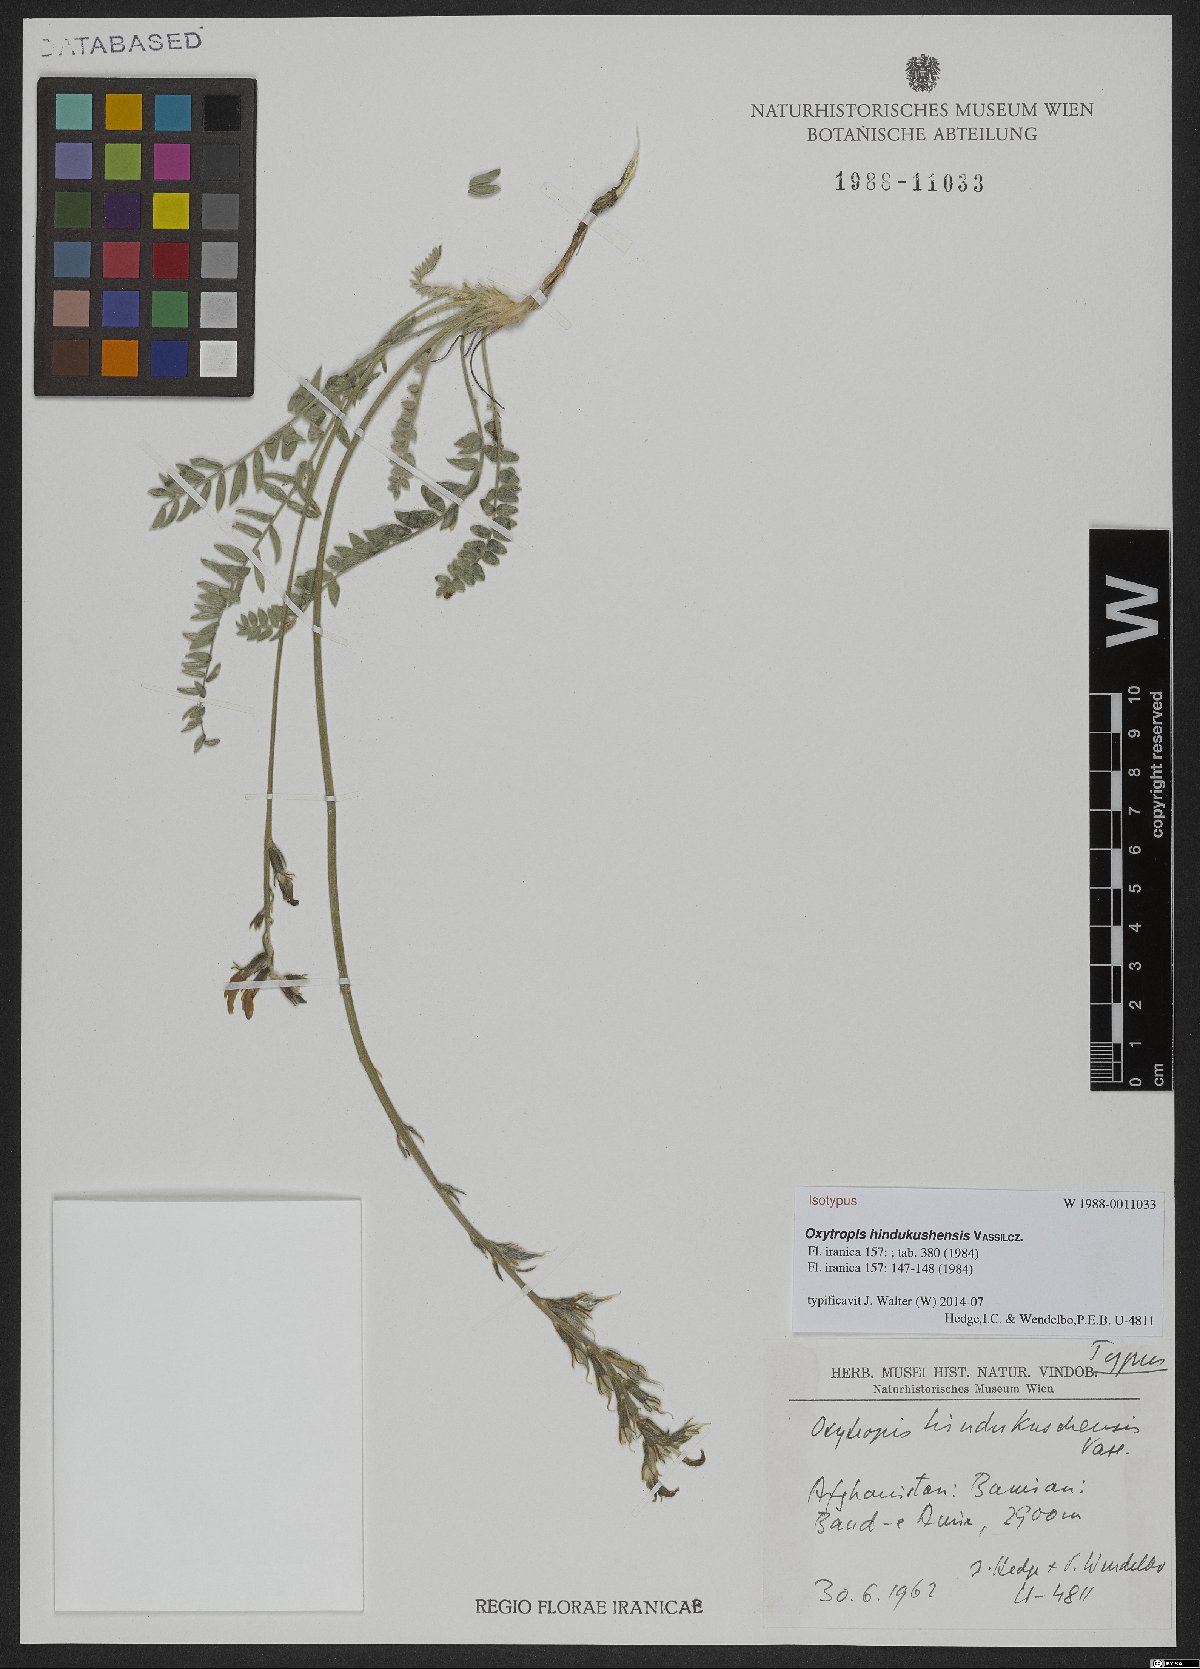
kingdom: Plantae
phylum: Tracheophyta
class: Magnoliopsida
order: Fabales
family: Fabaceae
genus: Oxytropis
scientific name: Oxytropis hindukushensis
